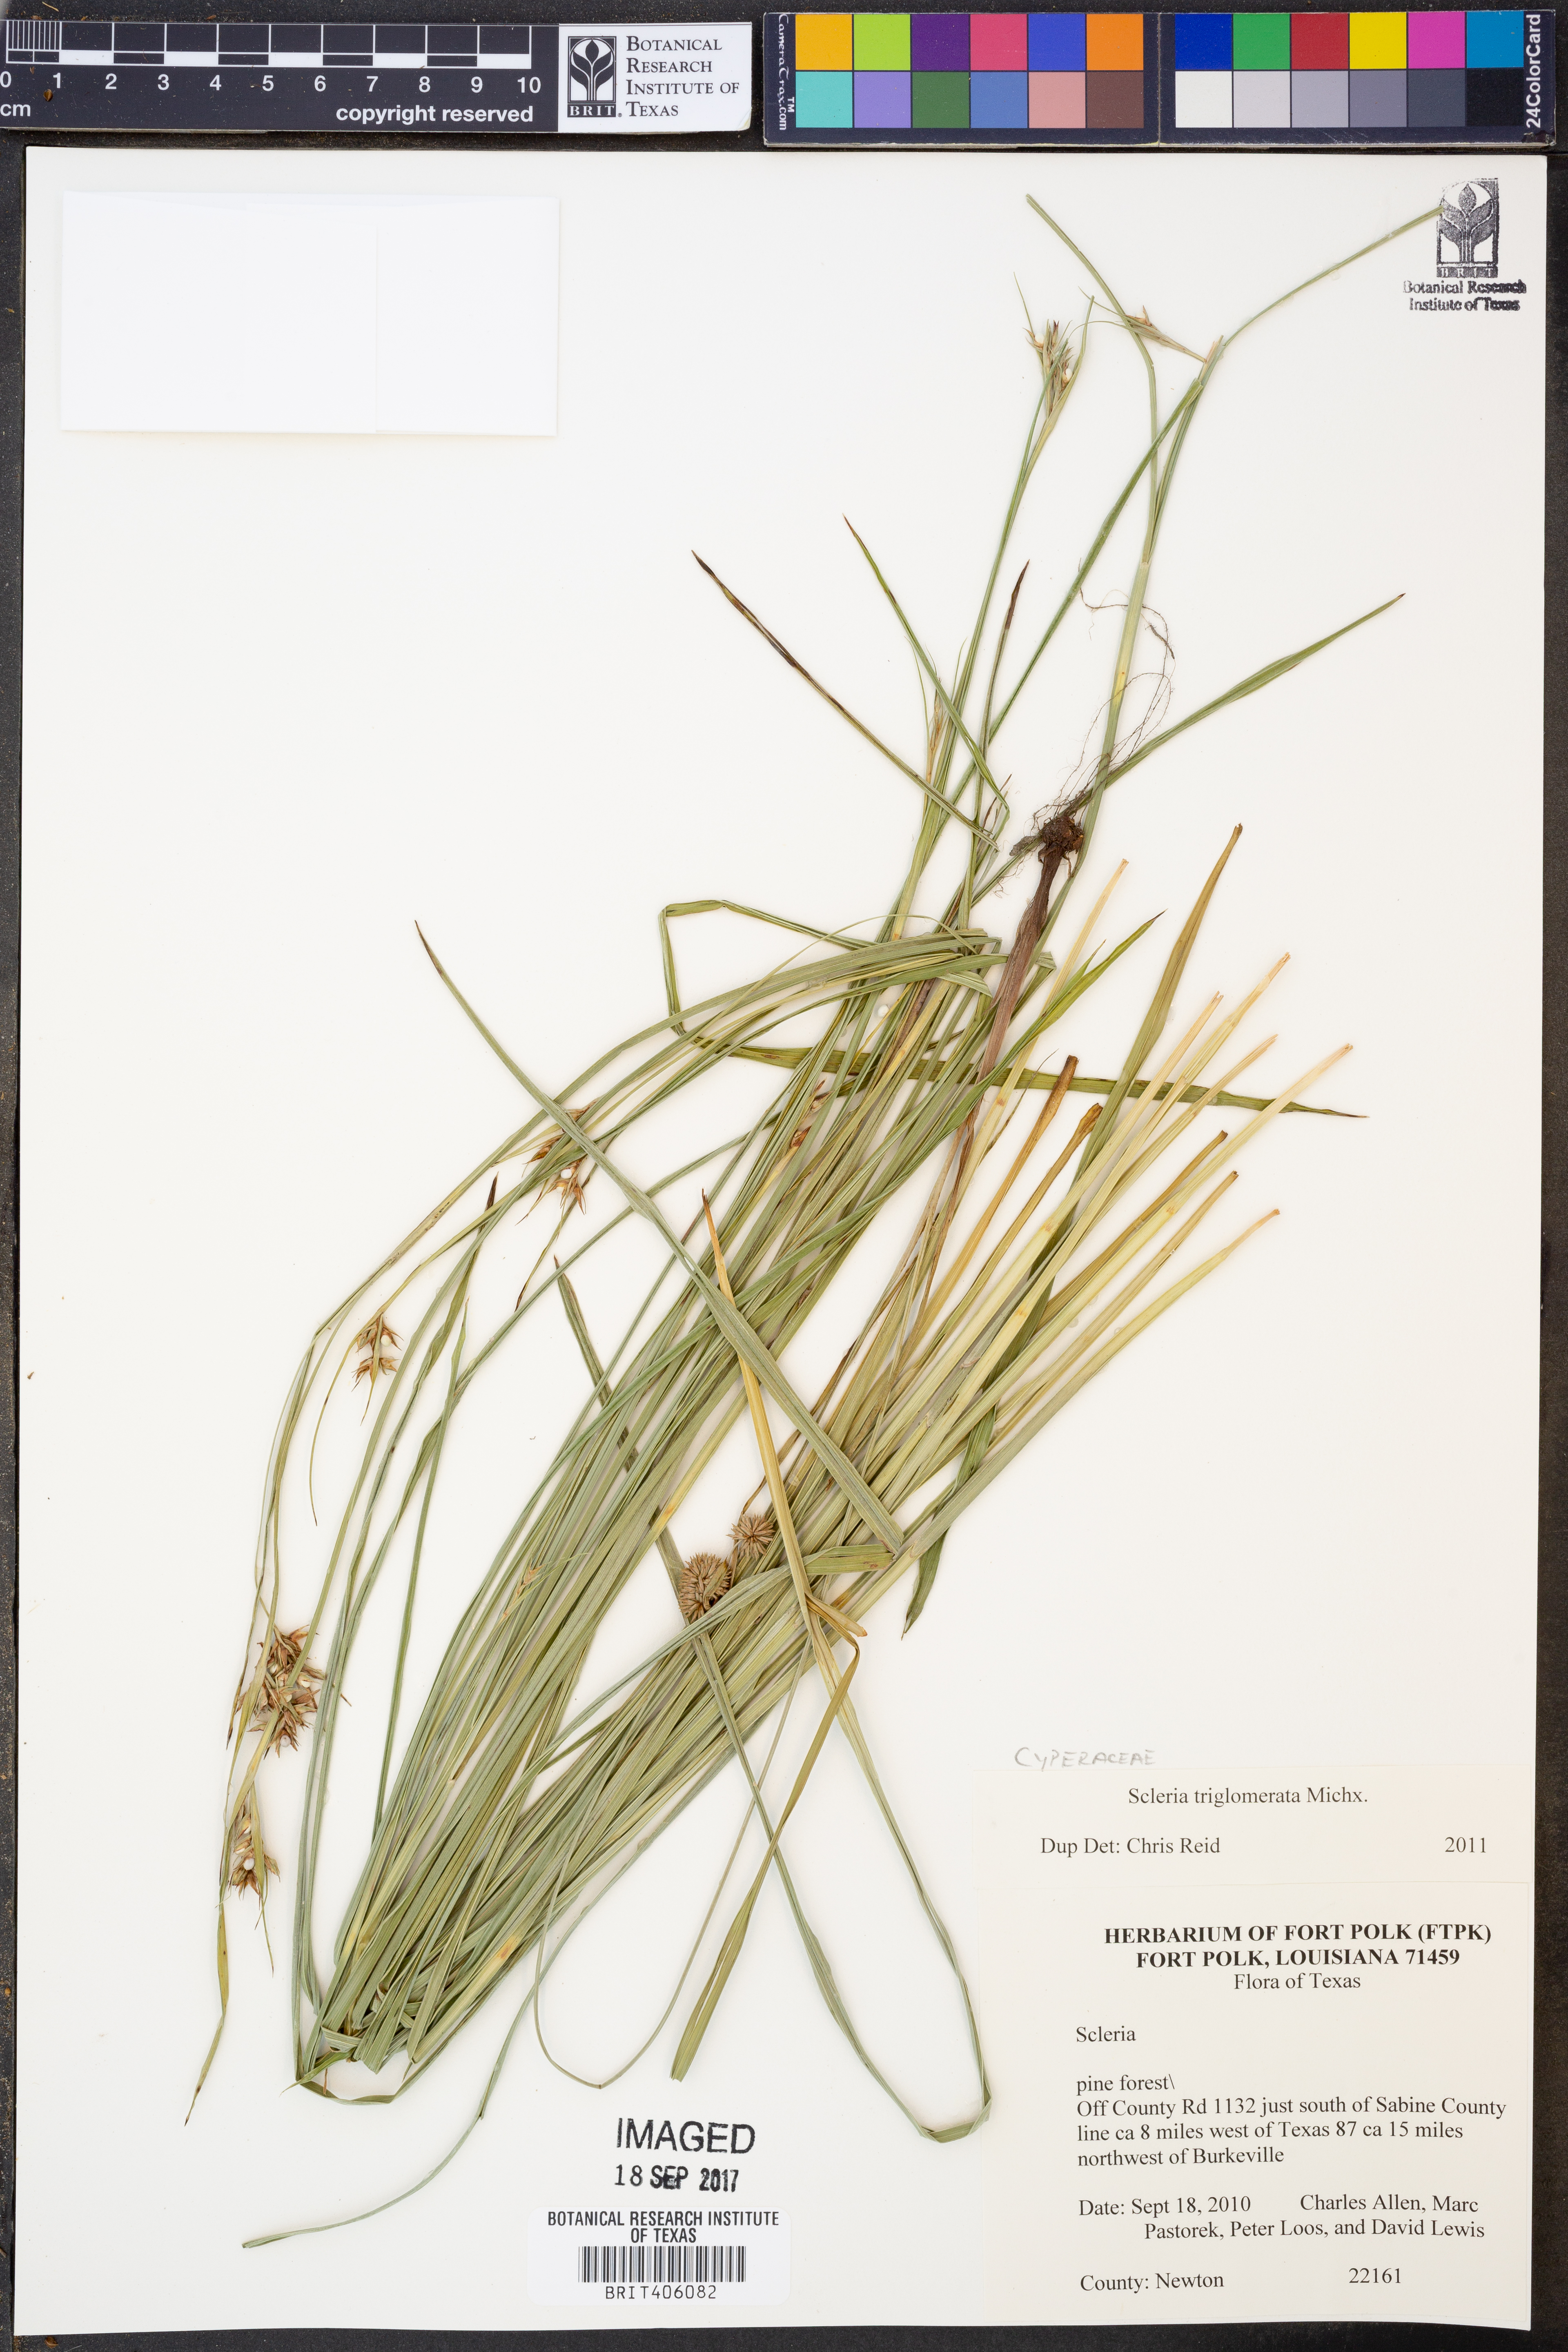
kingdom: Plantae
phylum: Tracheophyta
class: Liliopsida
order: Poales
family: Cyperaceae
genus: Scleria
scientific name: Scleria triglomerata
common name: Whip nutrush
